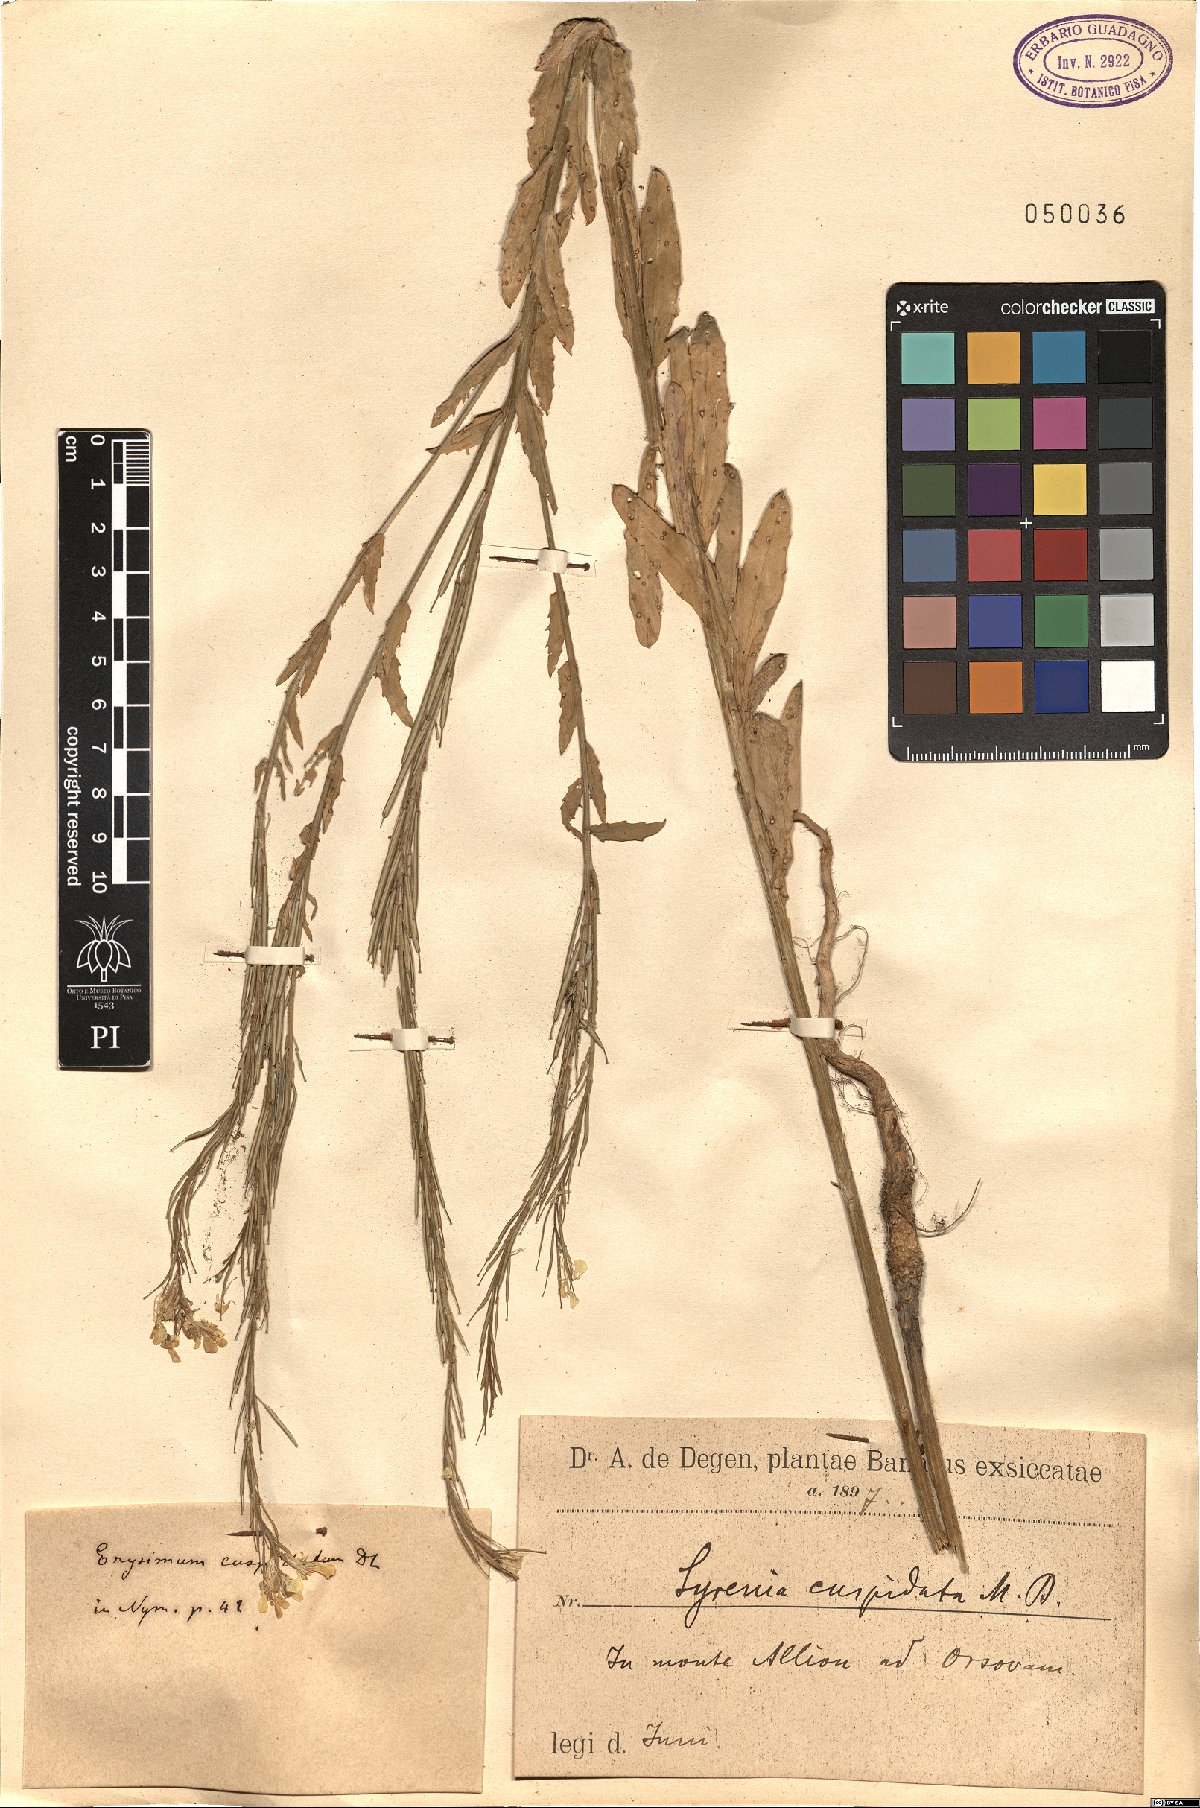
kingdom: Plantae
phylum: Tracheophyta
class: Magnoliopsida
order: Brassicales
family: Brassicaceae
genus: Erysimum
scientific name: Erysimum cuspidatum
